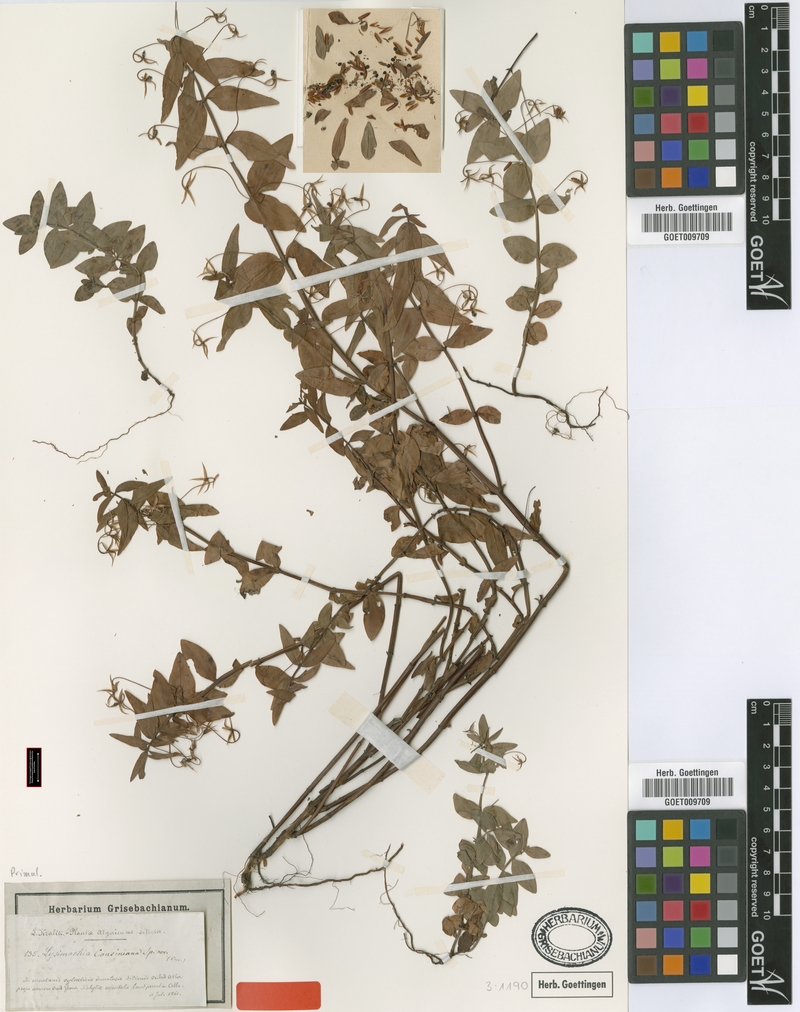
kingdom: Plantae
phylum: Tracheophyta
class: Magnoliopsida
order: Ericales
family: Primulaceae
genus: Lysimachia
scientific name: Lysimachia cousiniana
